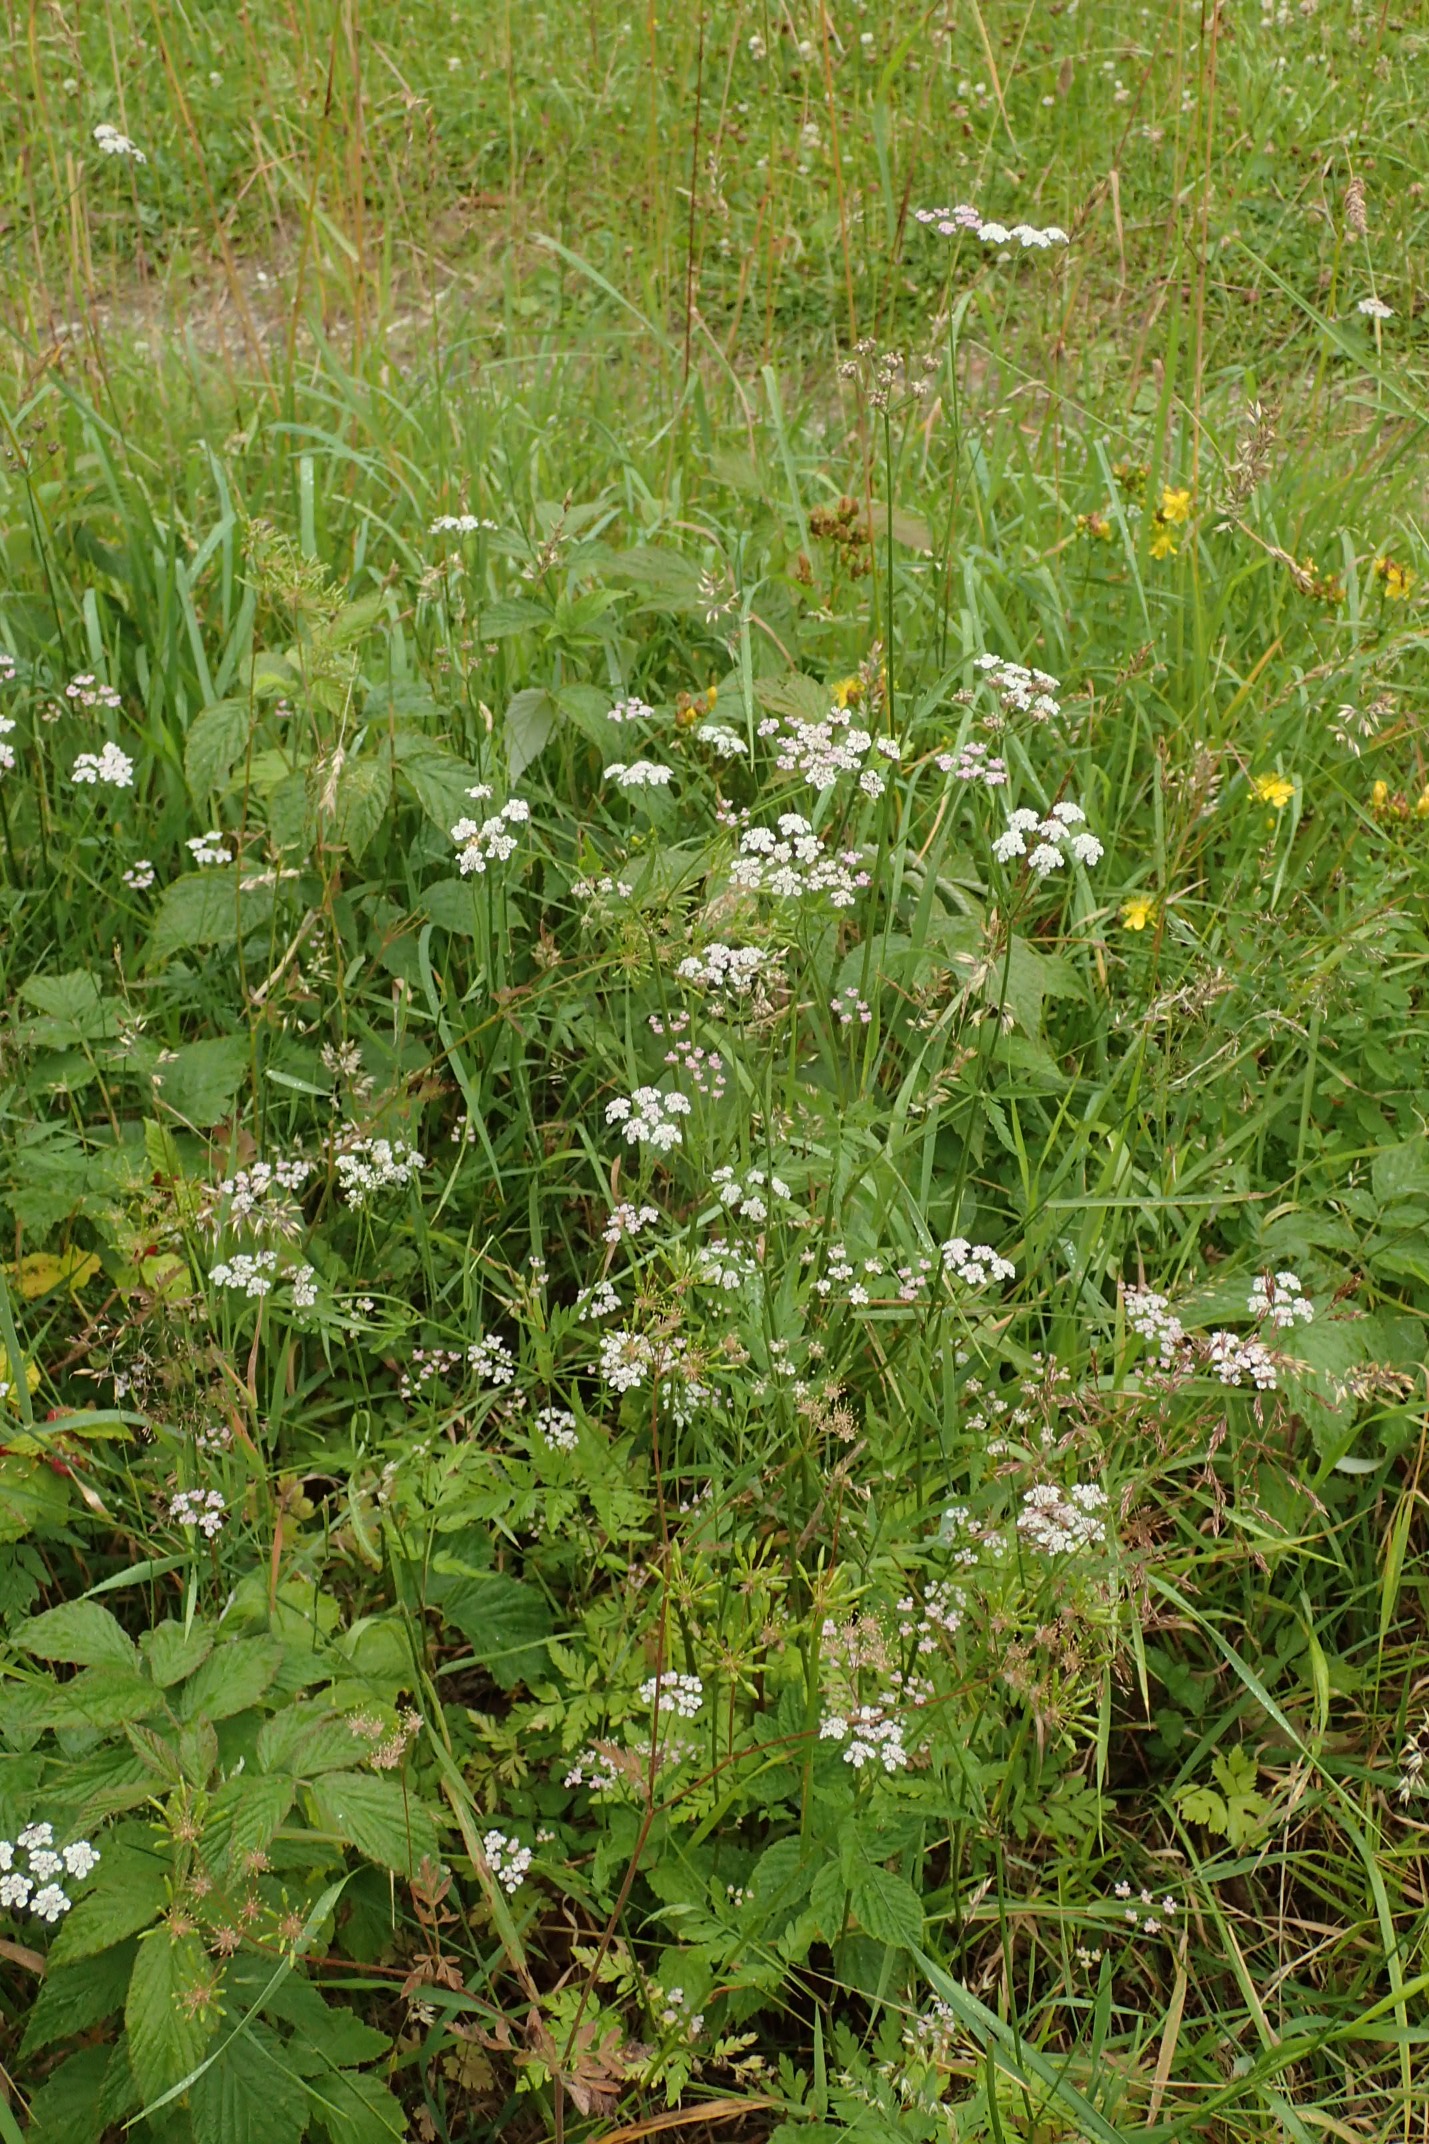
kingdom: Plantae
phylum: Tracheophyta
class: Magnoliopsida
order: Apiales
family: Apiaceae
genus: Torilis
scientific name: Torilis japonica
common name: Hvas randfrø
